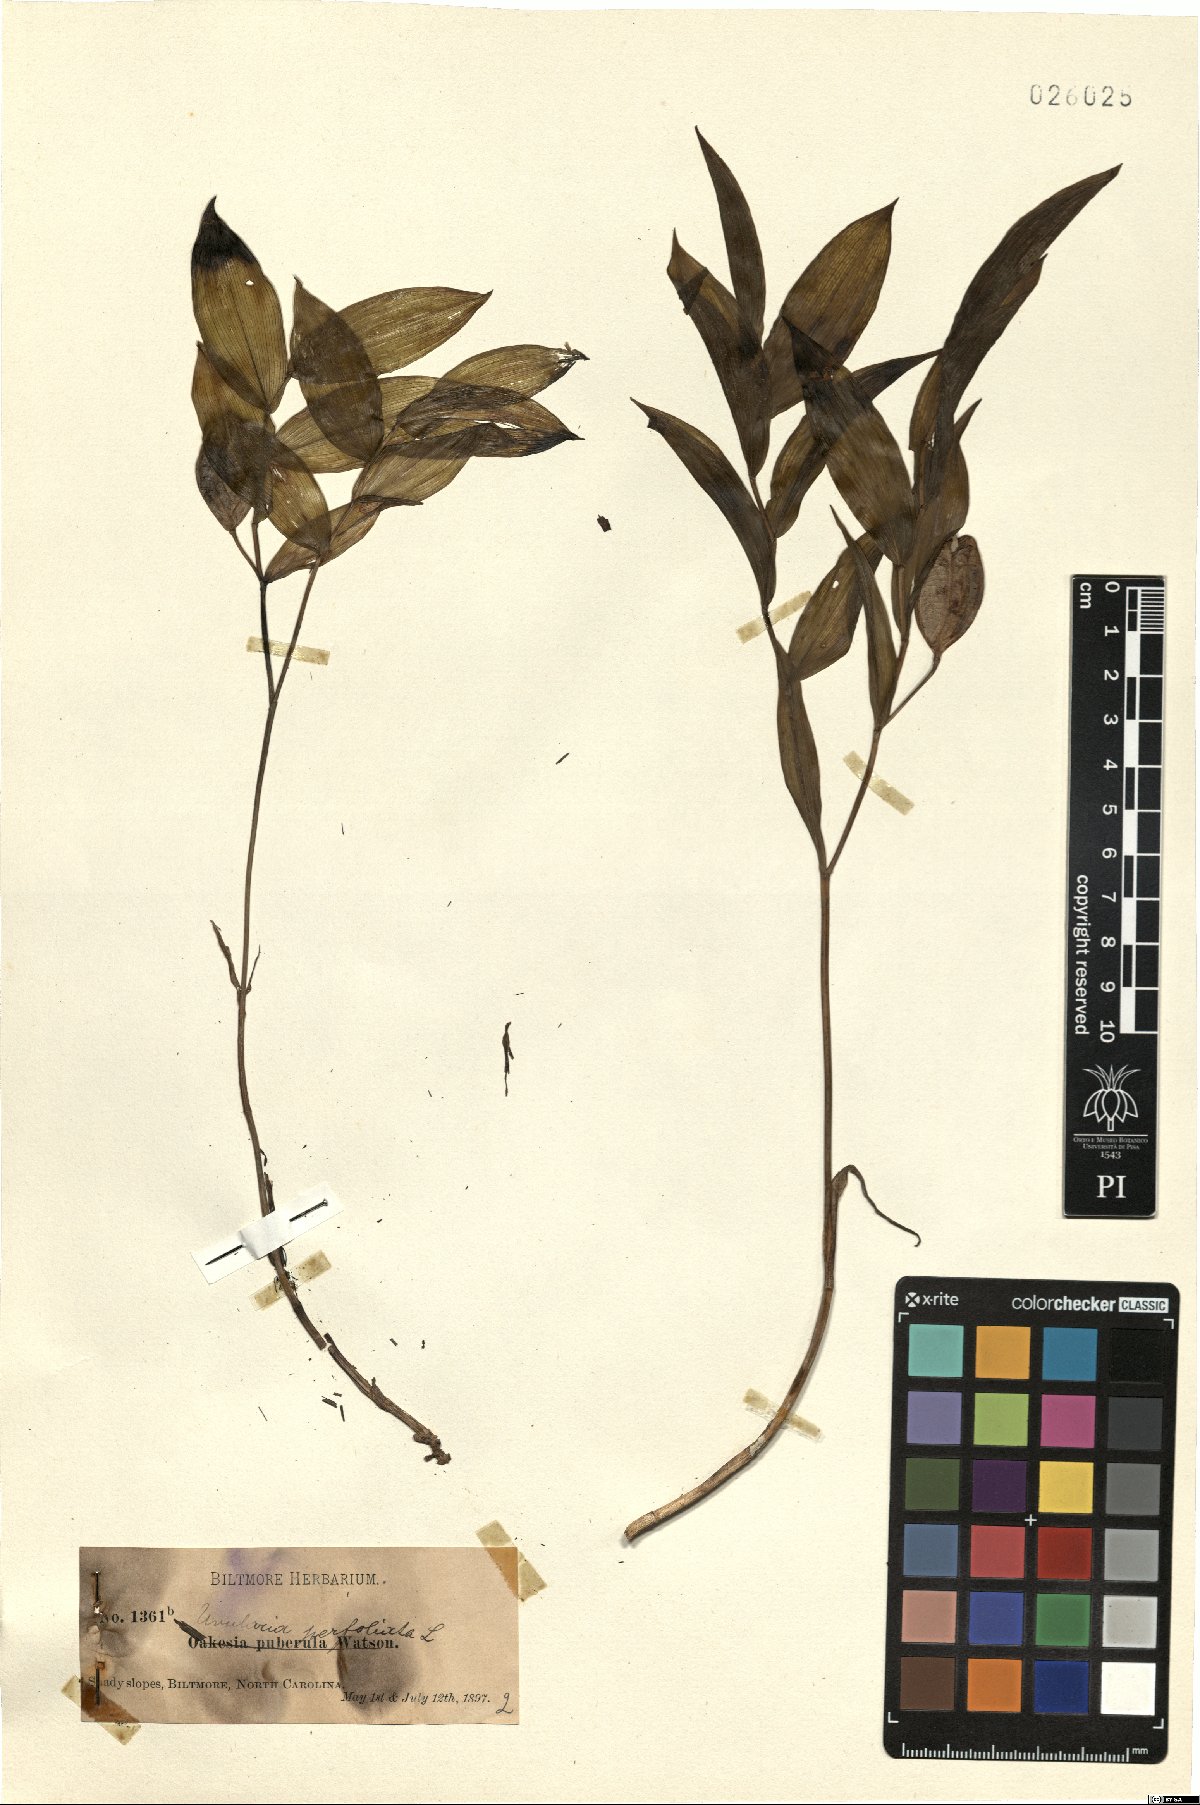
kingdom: Plantae
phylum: Tracheophyta
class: Liliopsida
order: Liliales
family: Colchicaceae
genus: Uvularia
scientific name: Uvularia perfoliata
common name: Perfoliate bellwort
